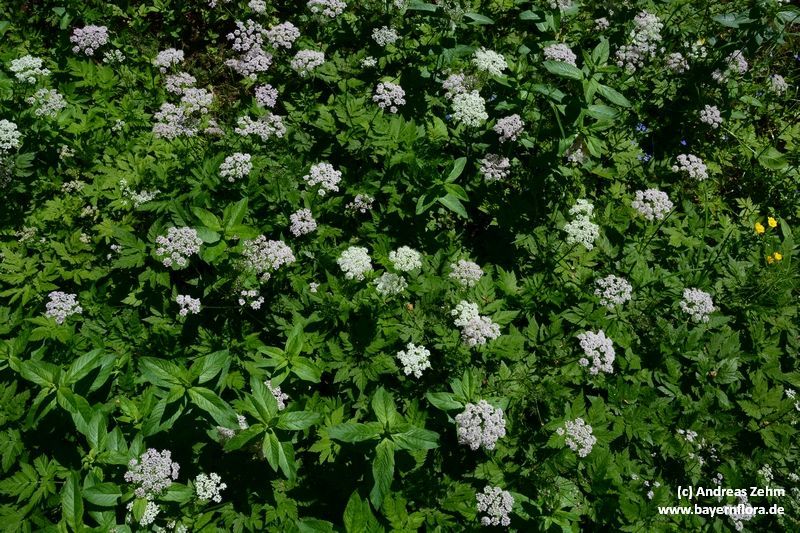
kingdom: Plantae
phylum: Tracheophyta
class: Magnoliopsida
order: Apiales
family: Apiaceae
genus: Chaerophyllum
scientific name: Chaerophyllum hirsutum
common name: Hairy chervil
